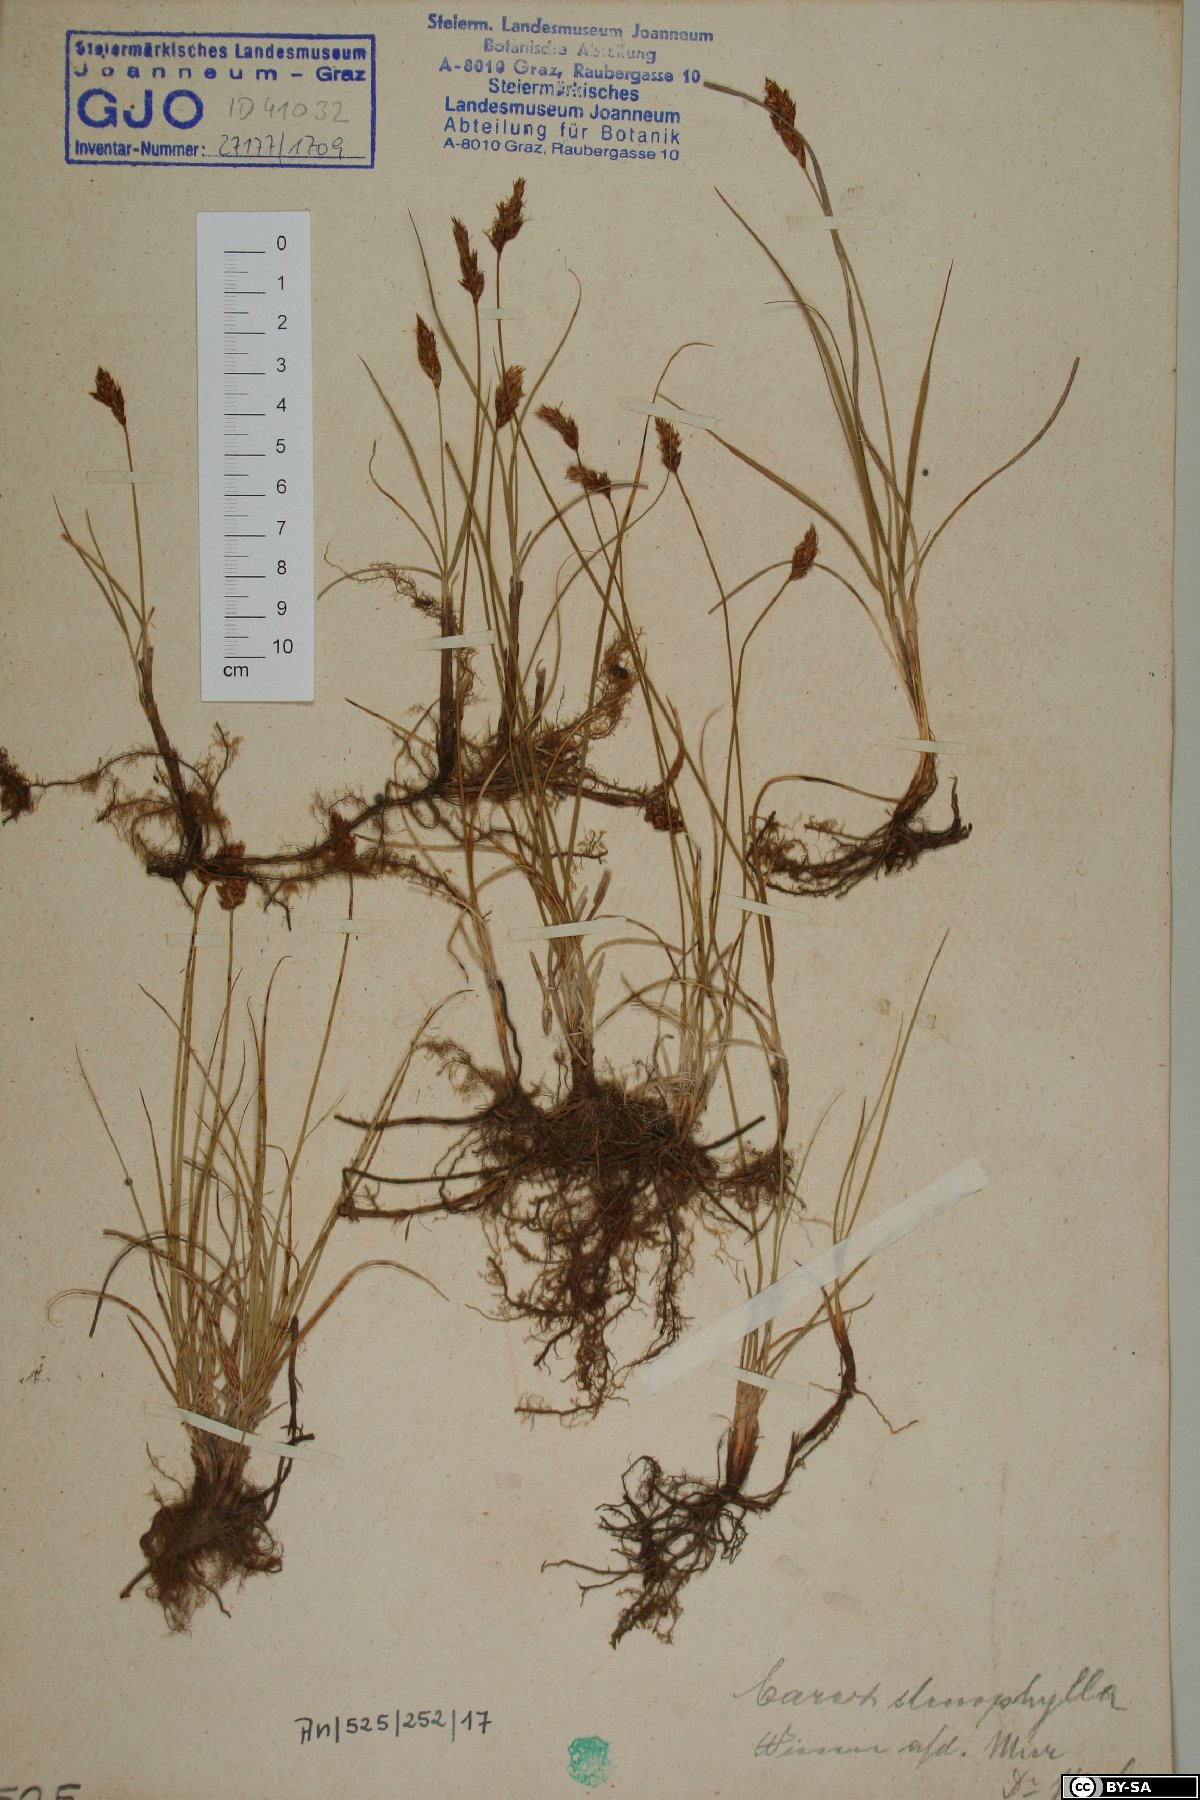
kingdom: Plantae
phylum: Tracheophyta
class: Liliopsida
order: Poales
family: Cyperaceae
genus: Carex
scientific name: Carex stenophylla
